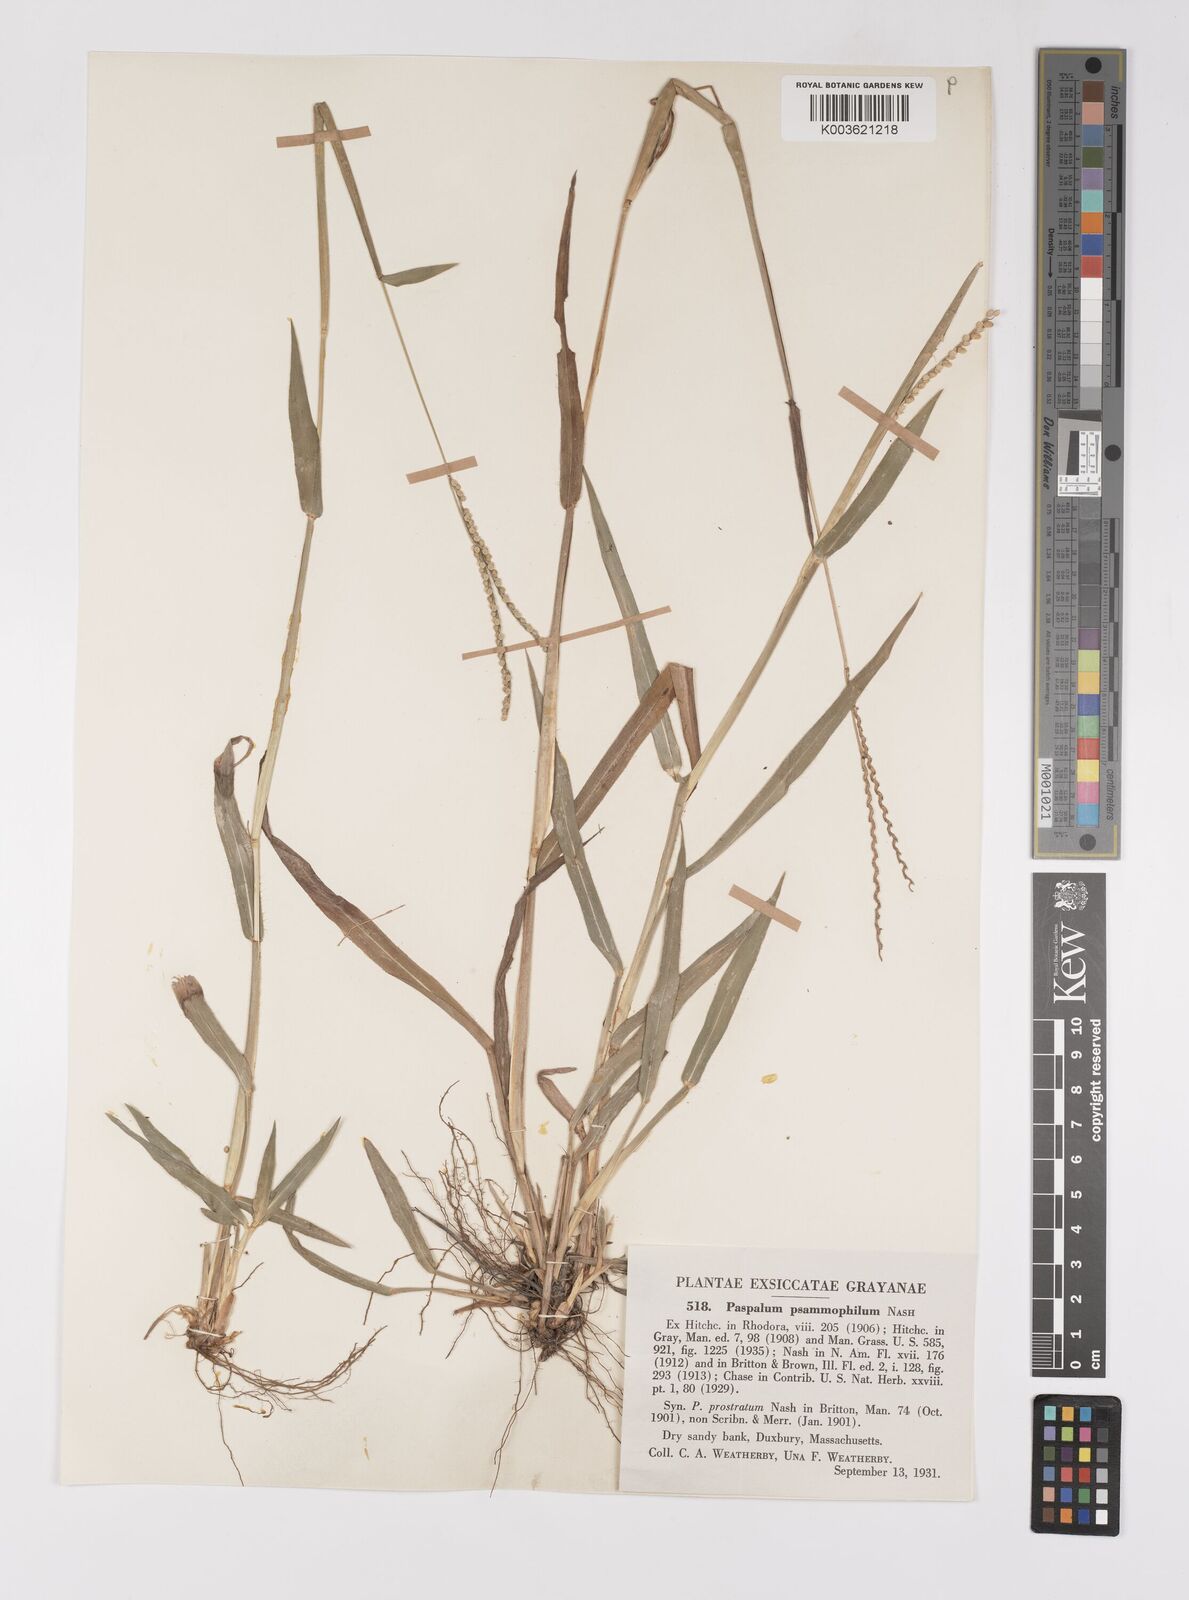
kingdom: Plantae
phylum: Tracheophyta
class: Liliopsida
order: Poales
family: Poaceae
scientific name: Poaceae
